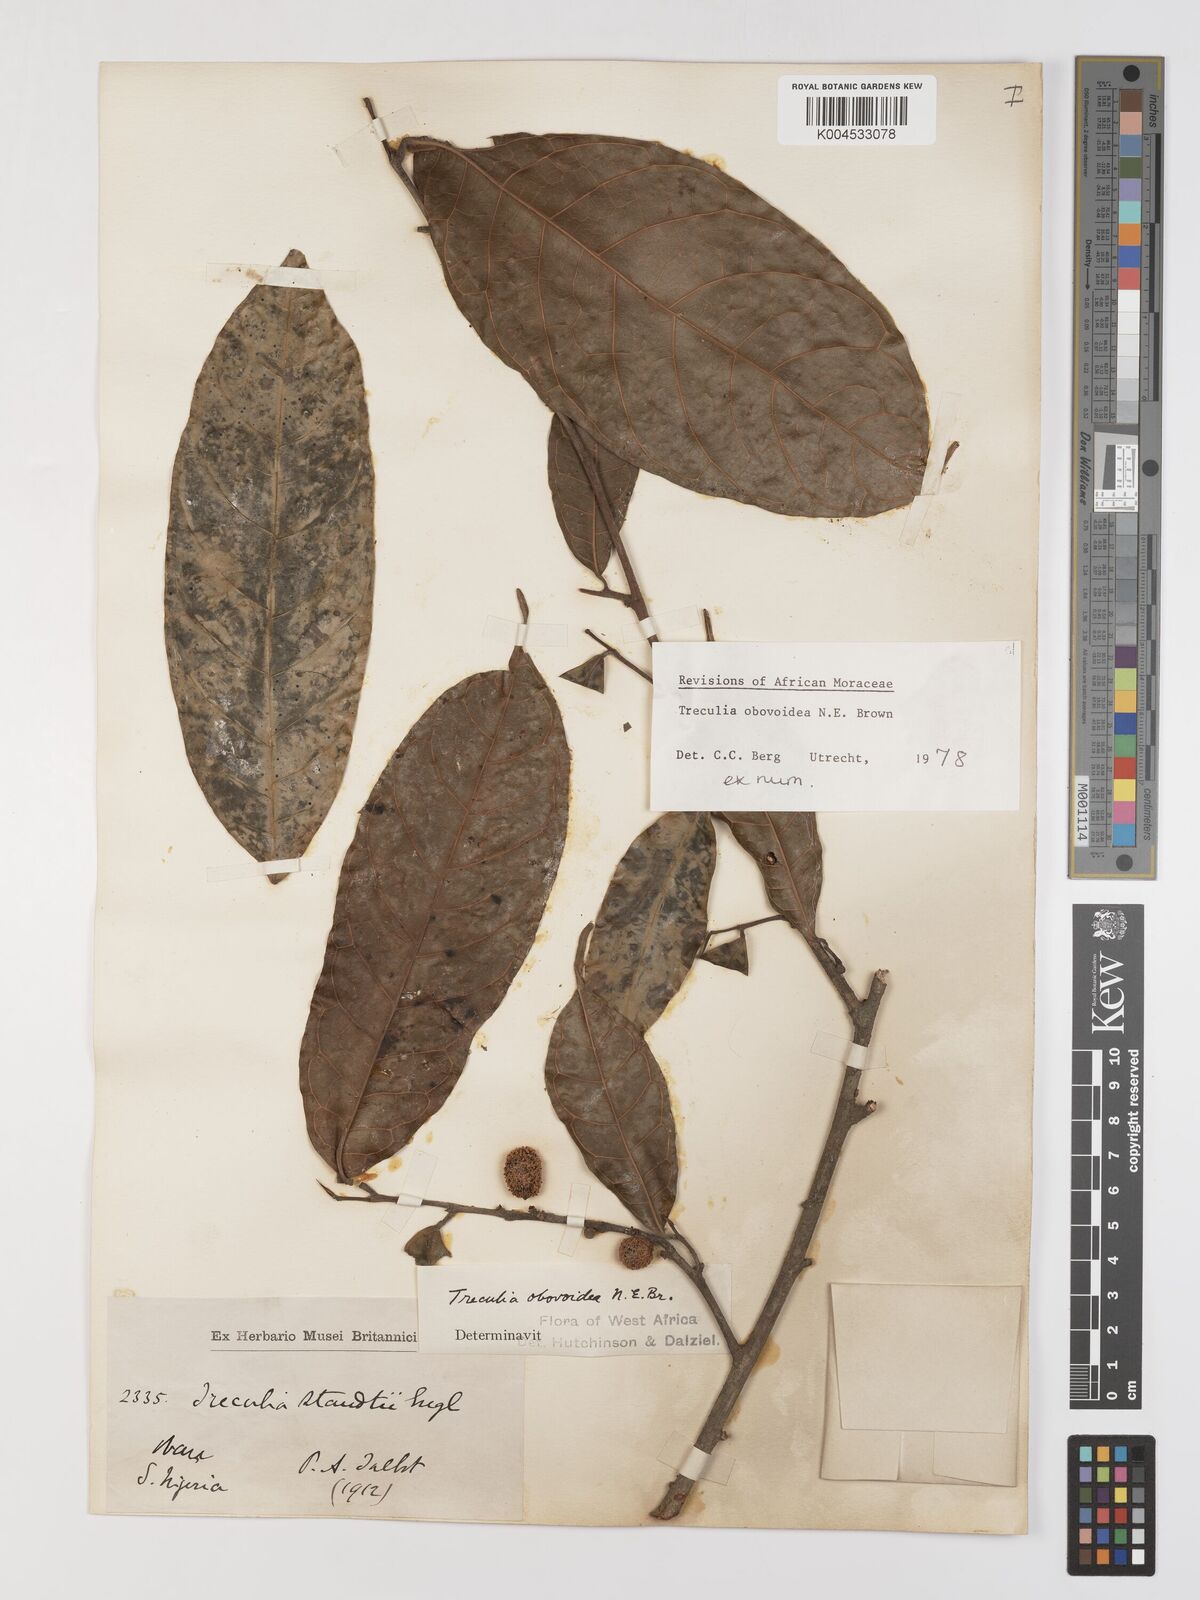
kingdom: Plantae
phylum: Tracheophyta
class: Magnoliopsida
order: Rosales
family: Moraceae
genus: Treculia
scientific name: Treculia obovoidea
